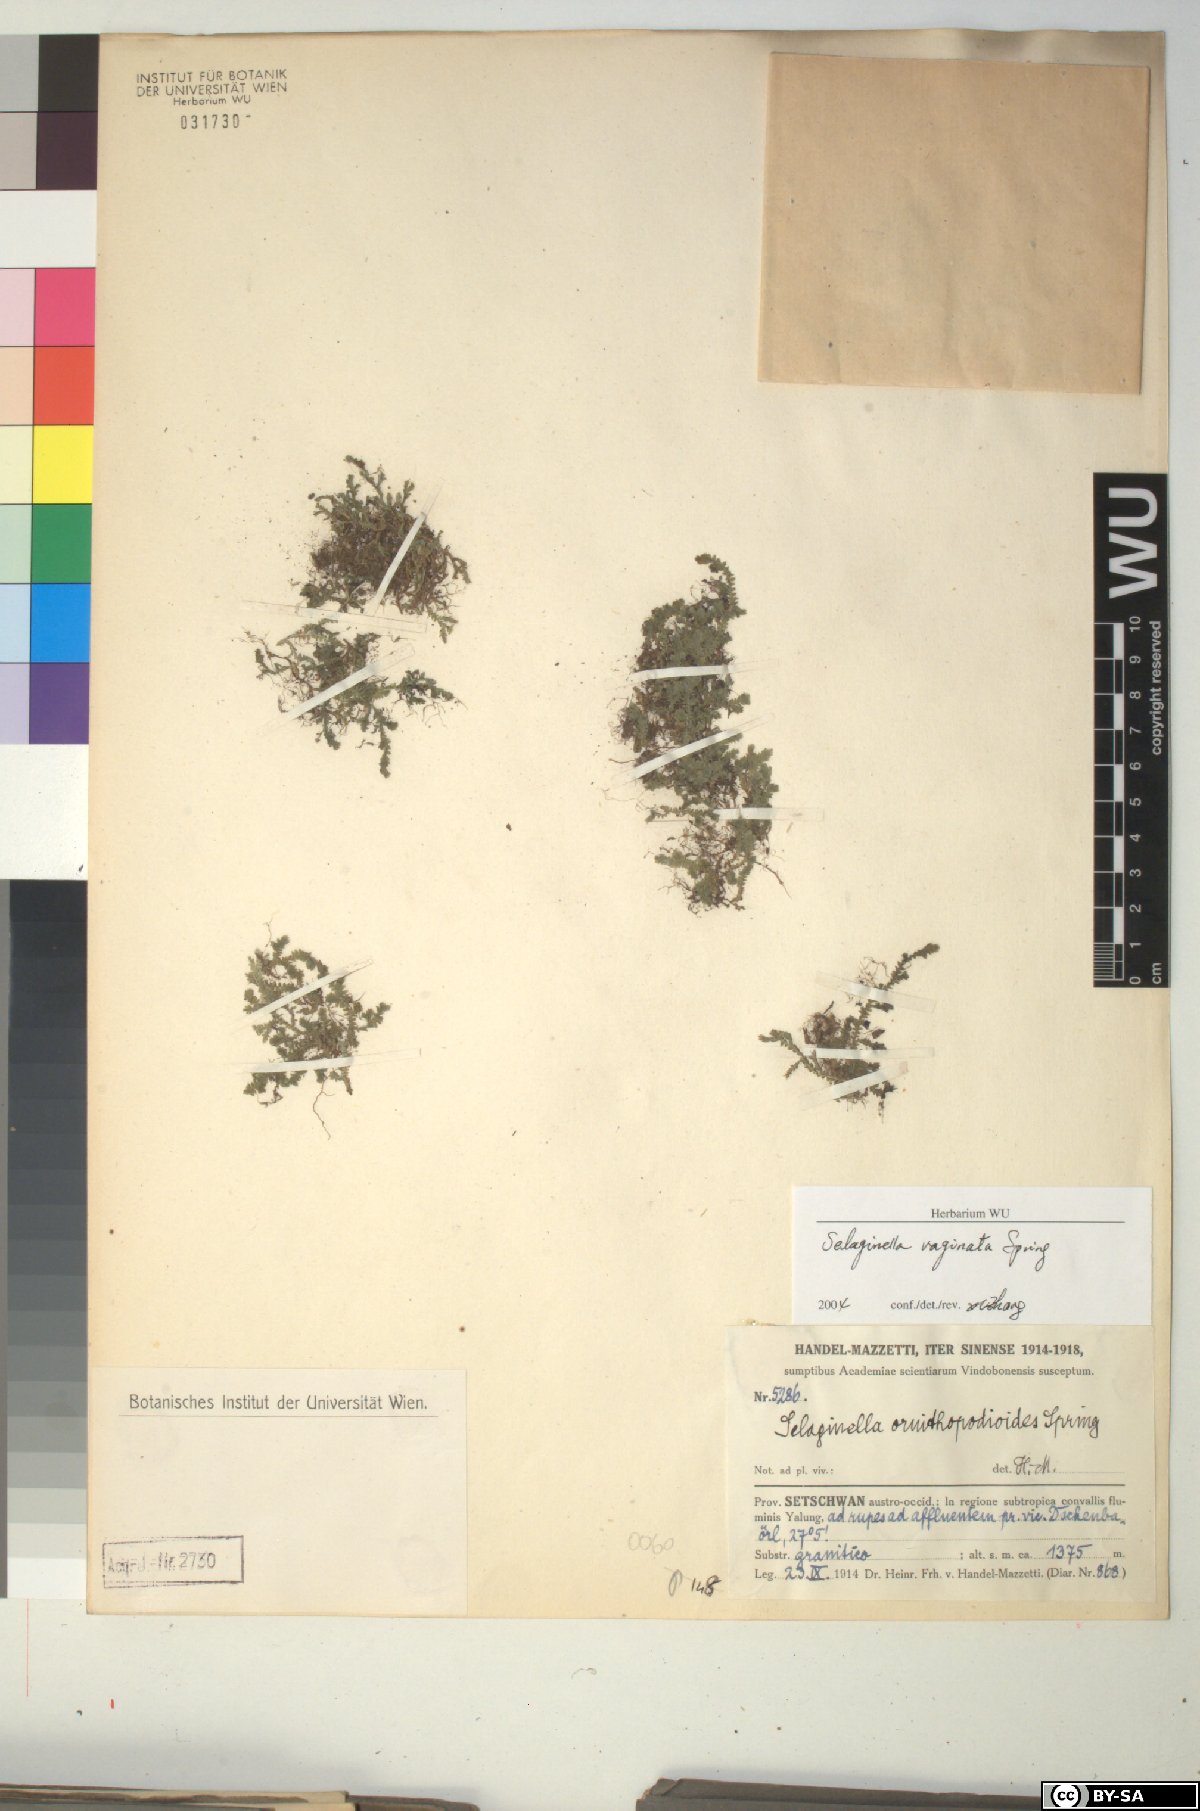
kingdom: Plantae
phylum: Tracheophyta
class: Lycopodiopsida
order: Selaginellales
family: Selaginellaceae
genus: Selaginella
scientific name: Selaginella vaginata
